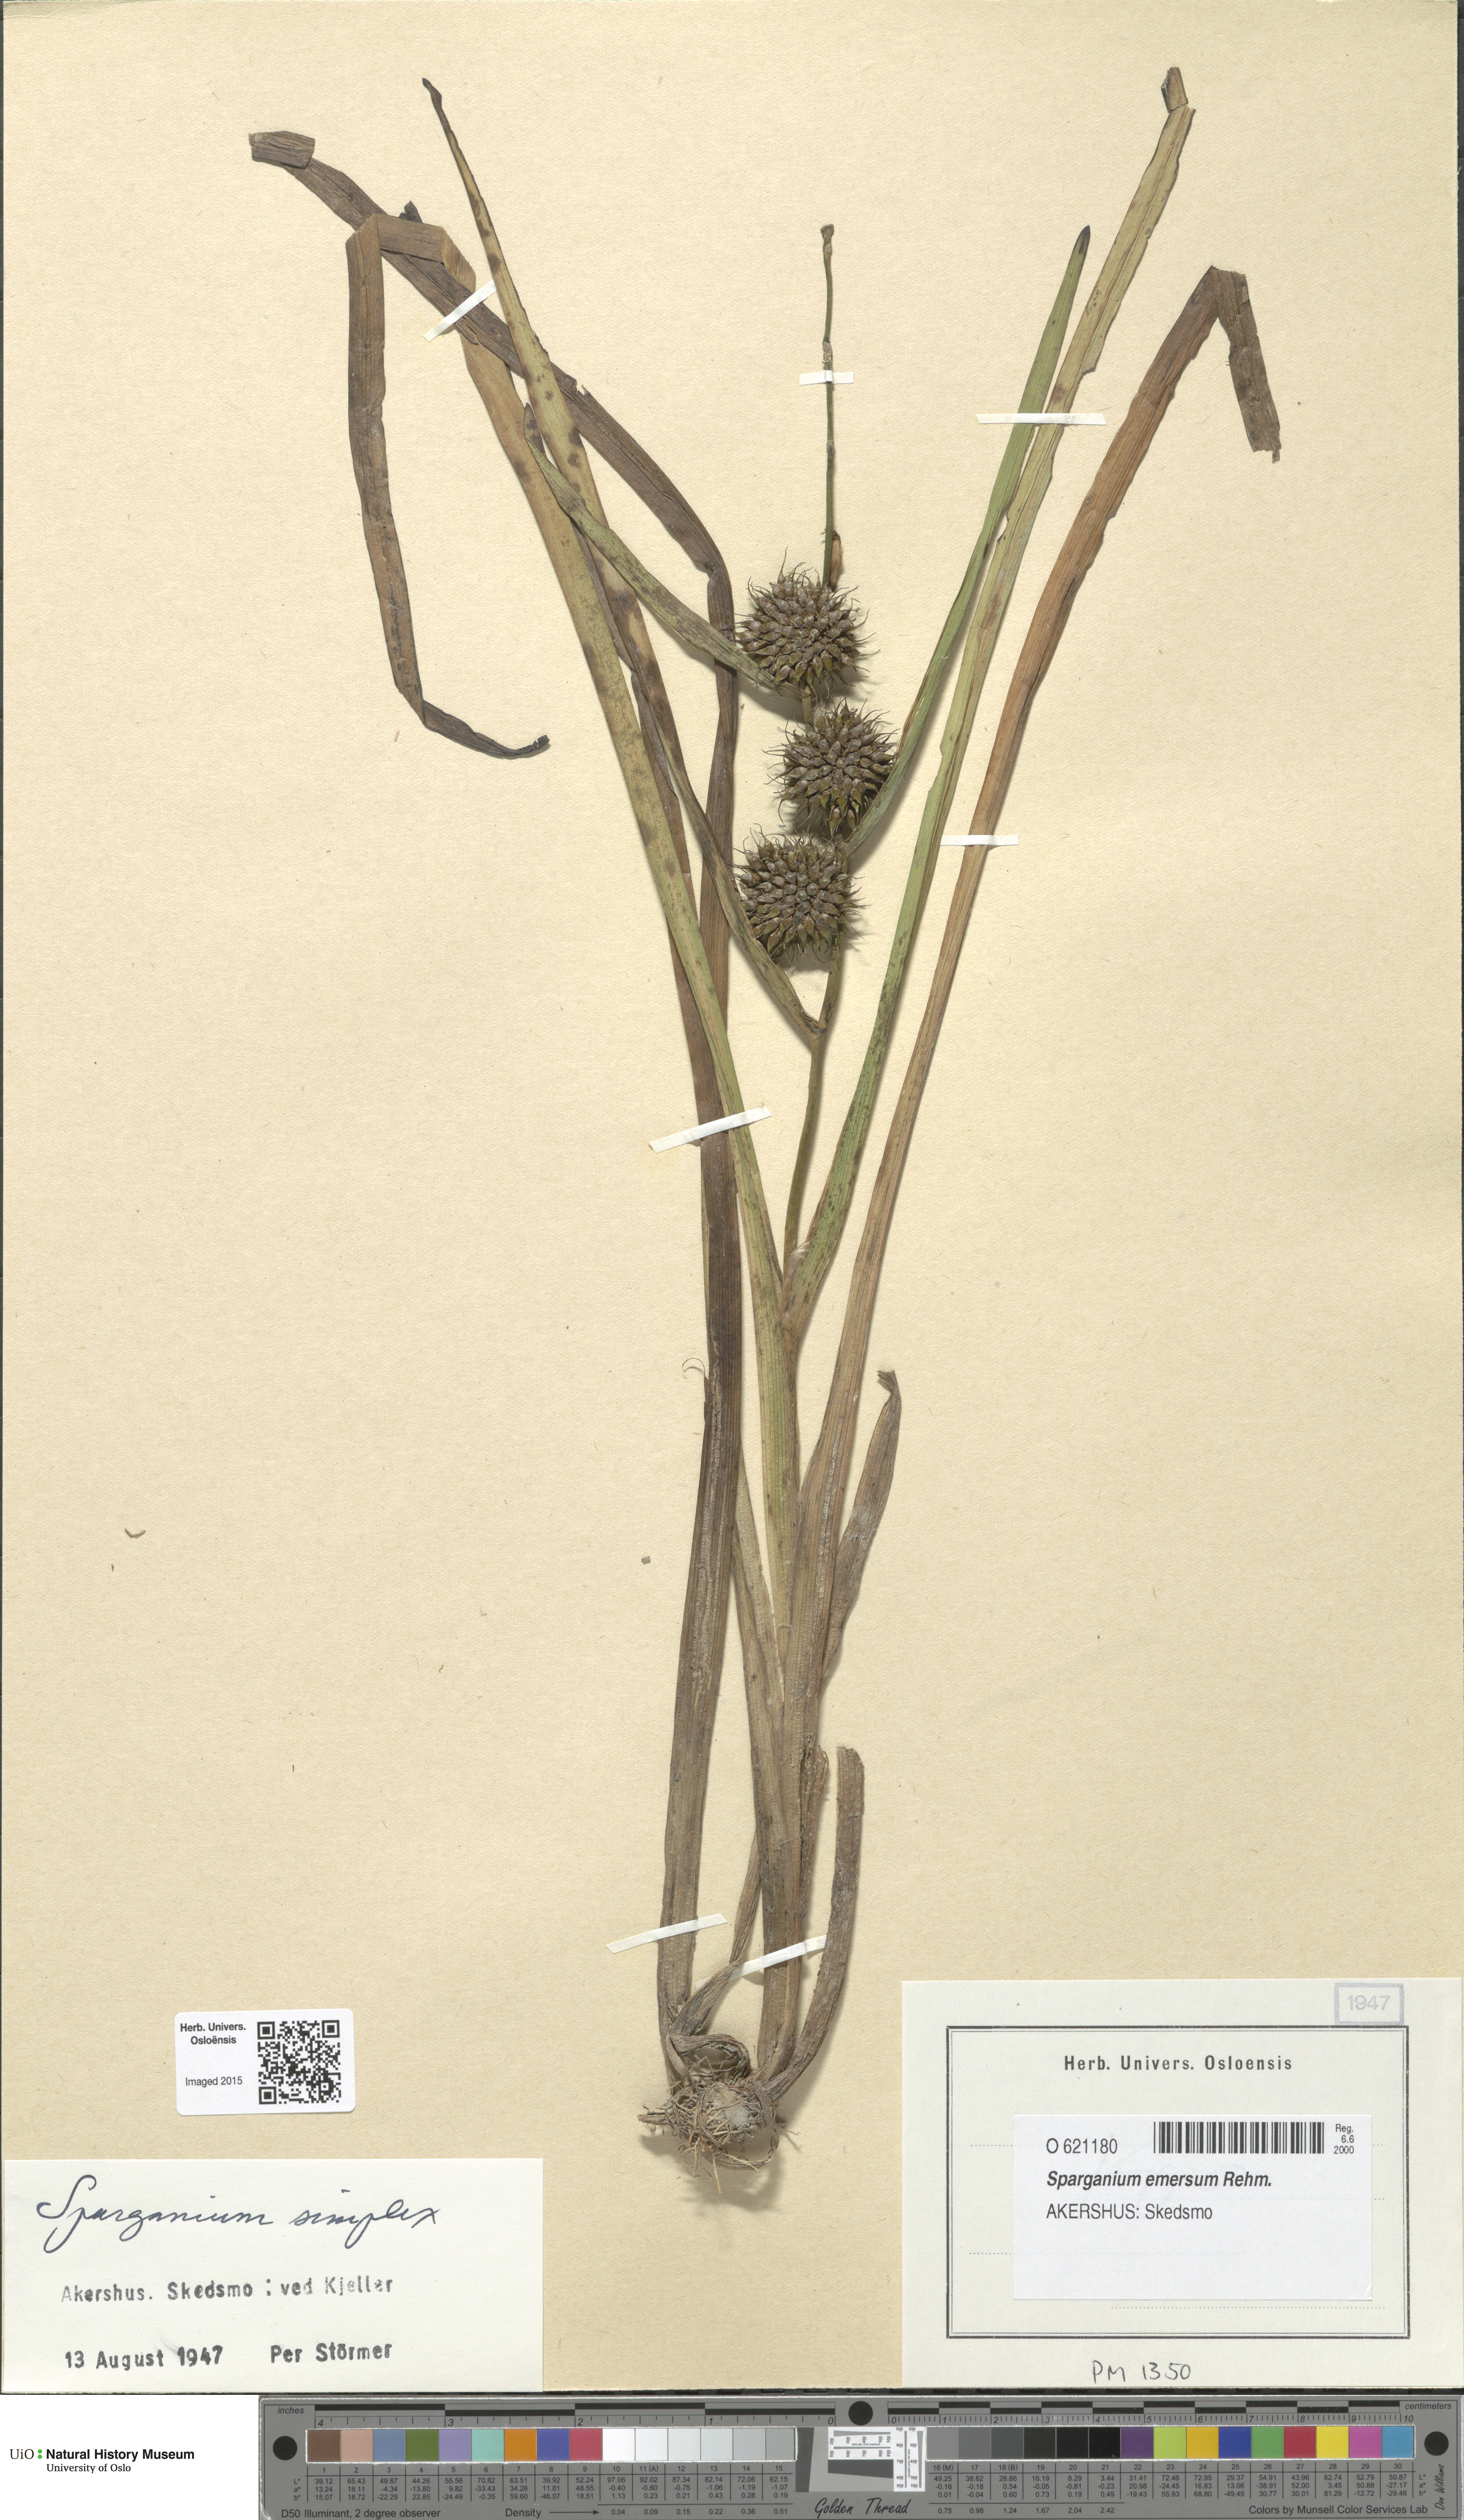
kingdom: Plantae
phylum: Tracheophyta
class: Liliopsida
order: Poales
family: Typhaceae
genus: Sparganium
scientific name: Sparganium emersum
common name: Unbranched bur-reed
